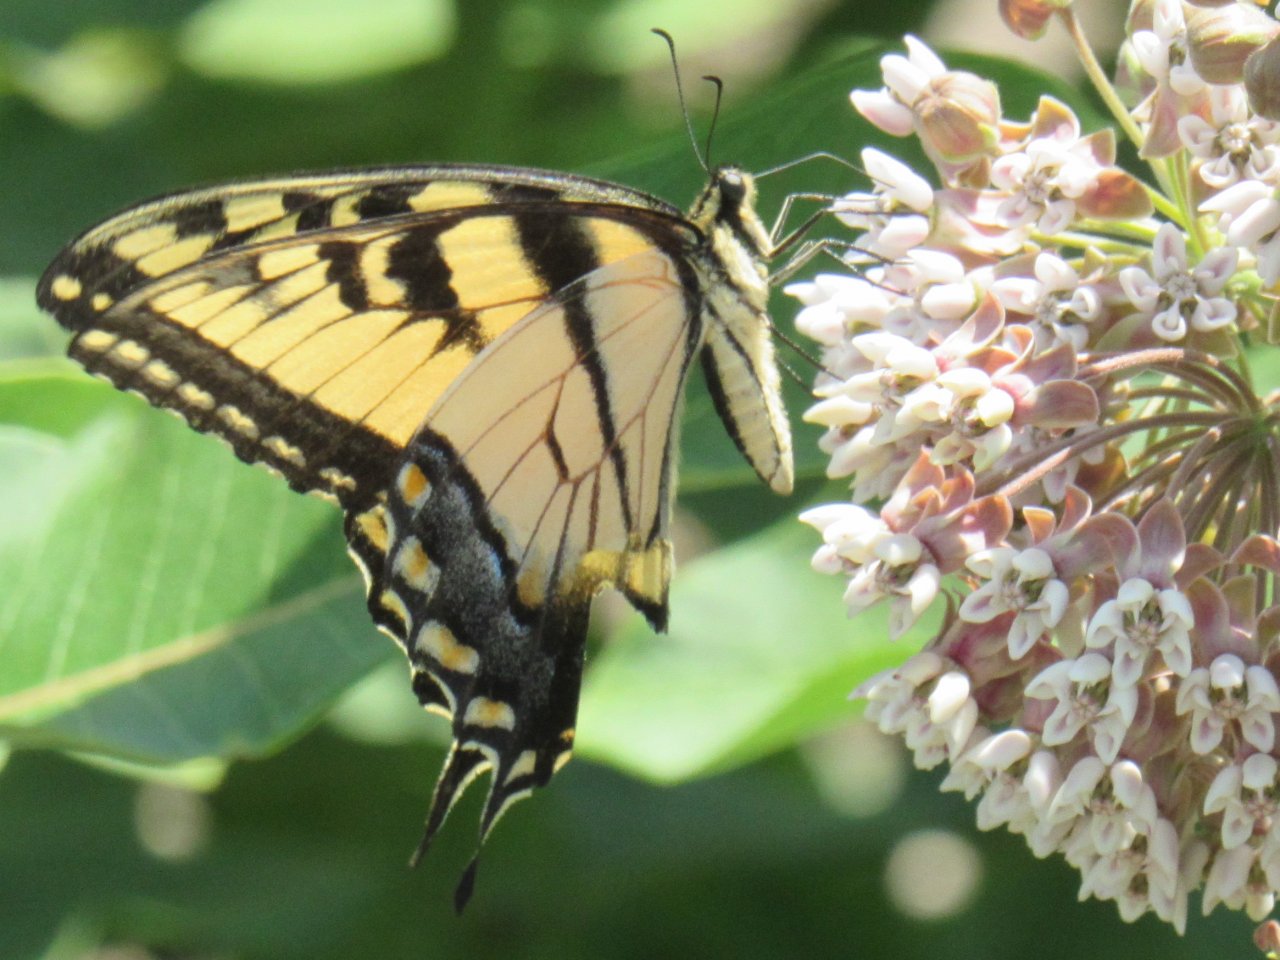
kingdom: Animalia
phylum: Arthropoda
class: Insecta
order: Lepidoptera
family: Papilionidae
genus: Pterourus
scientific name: Pterourus glaucus
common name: Eastern Tiger Swallowtail
